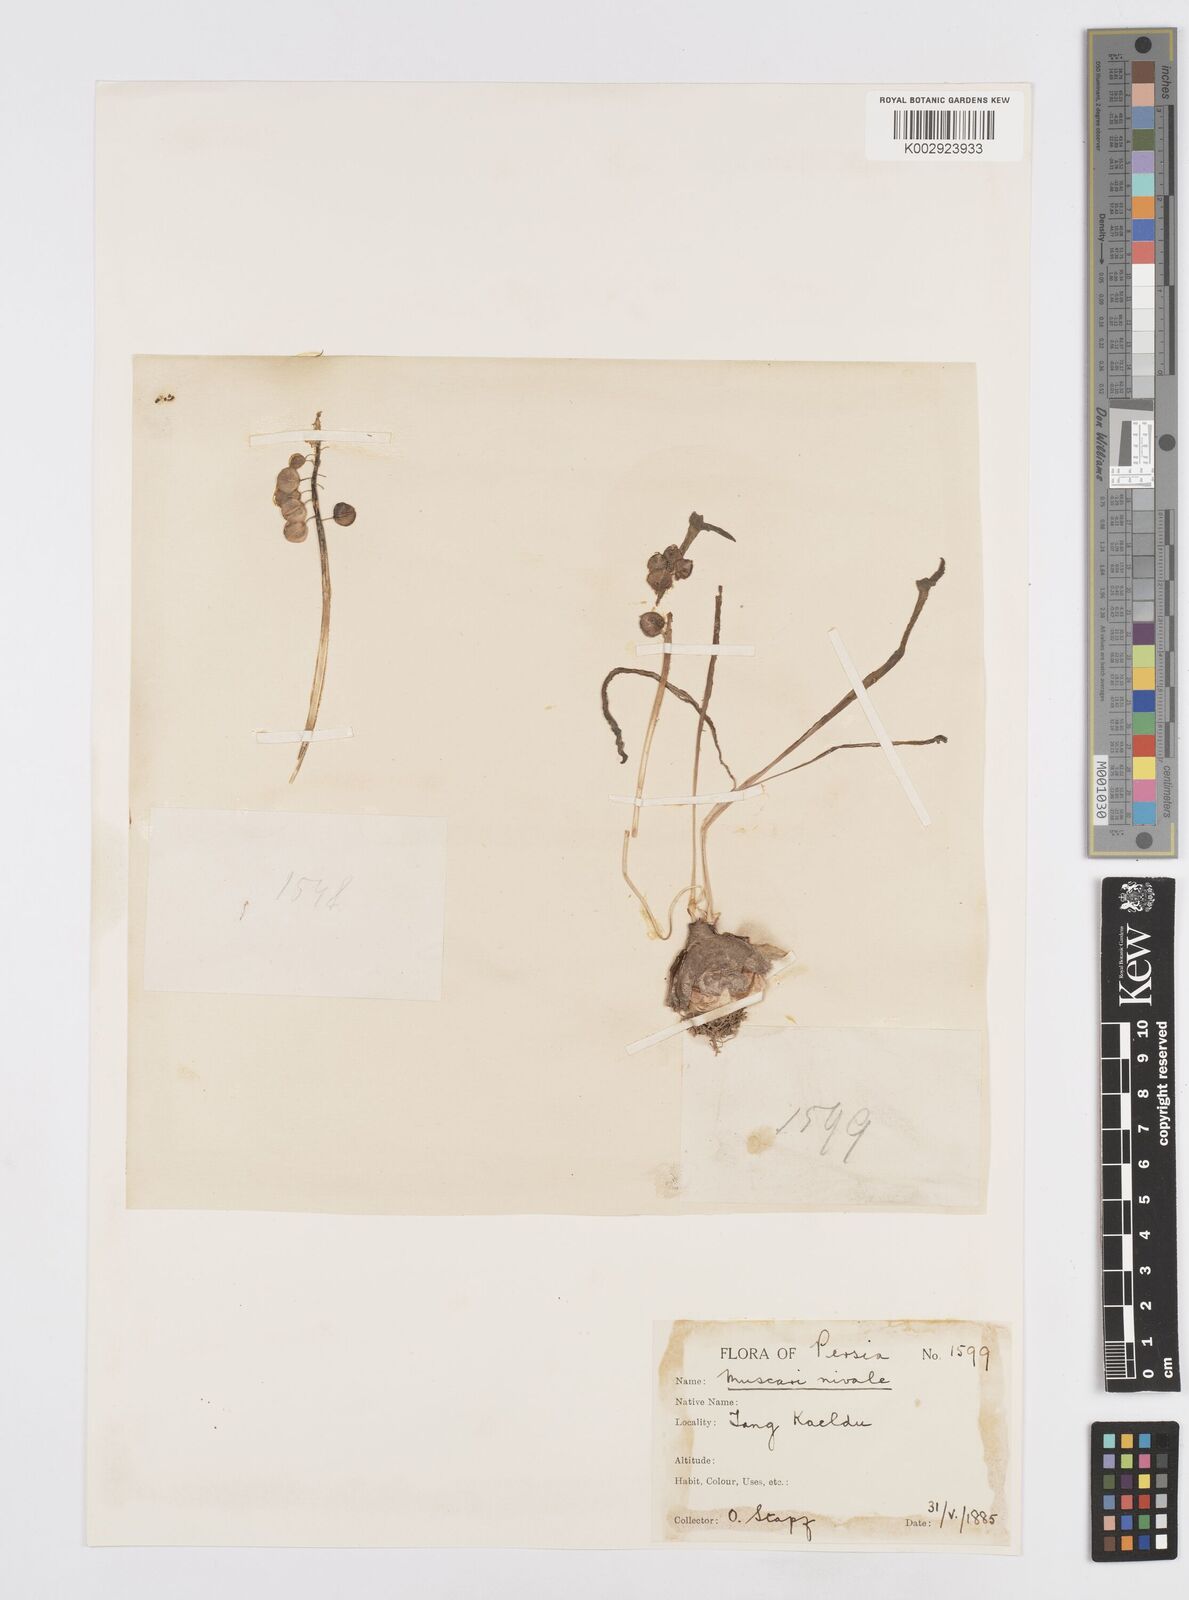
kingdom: Plantae
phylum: Tracheophyta
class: Liliopsida
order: Asparagales
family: Asparagaceae
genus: Muscari
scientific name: Muscari neglectum
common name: Grape-hyacinth
